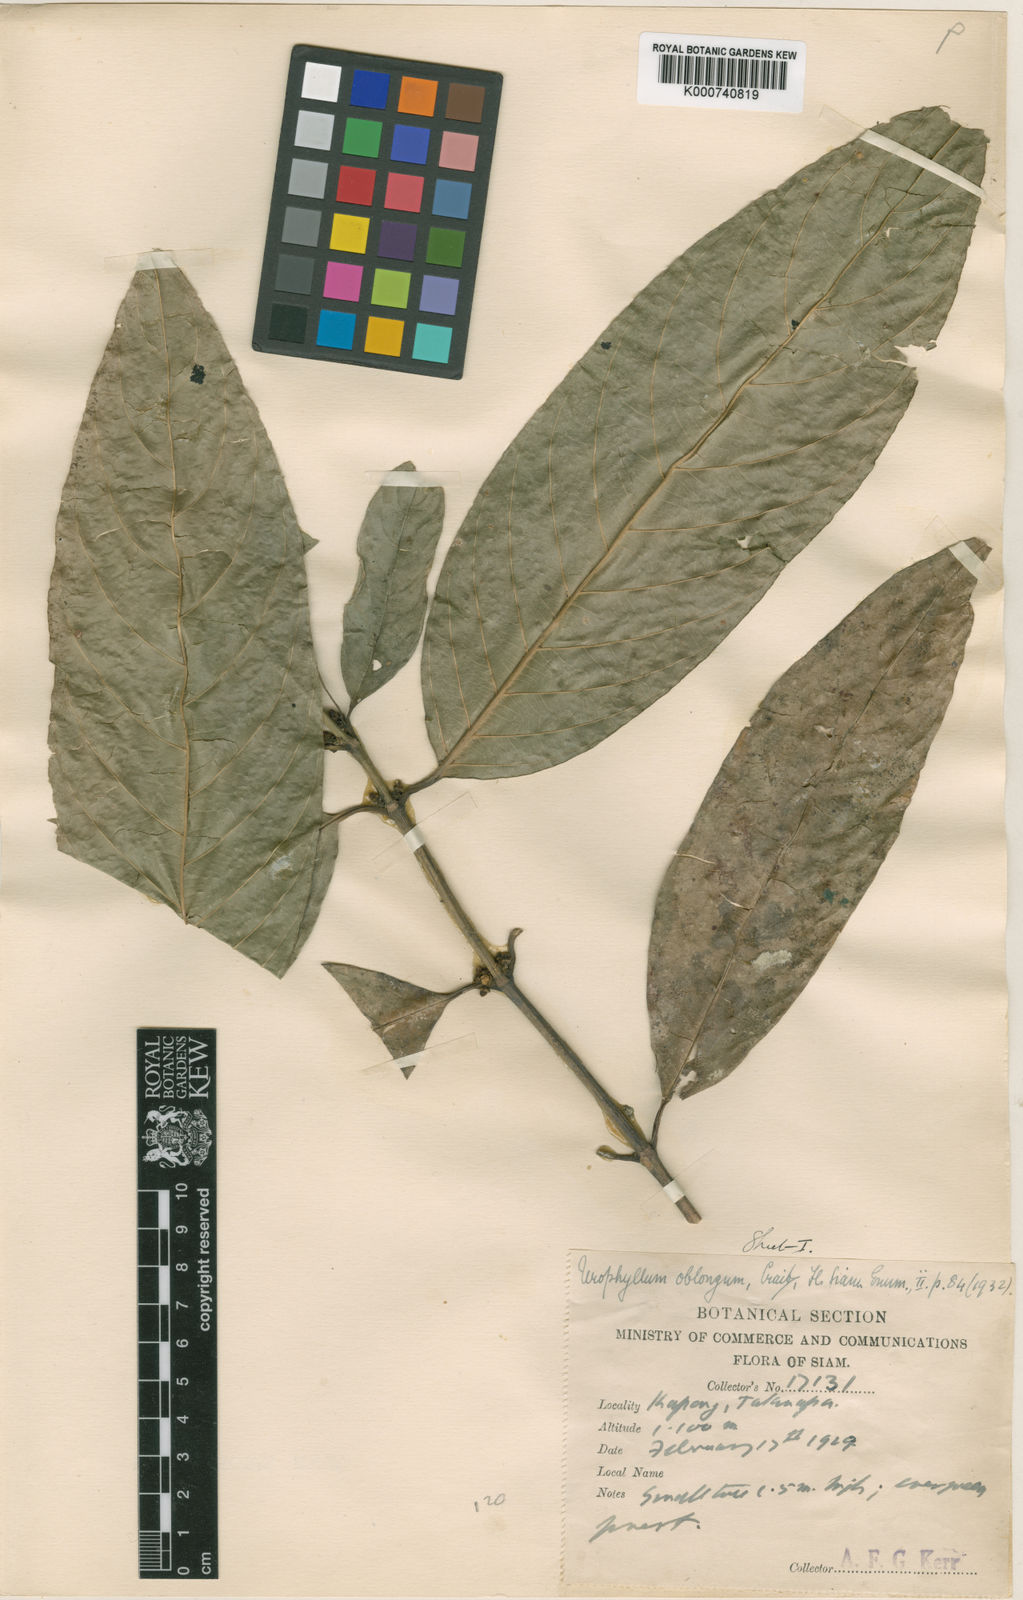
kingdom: Plantae
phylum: Tracheophyta
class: Magnoliopsida
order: Gentianales
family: Rubiaceae
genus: Urophyllum
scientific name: Urophyllum oblongum
